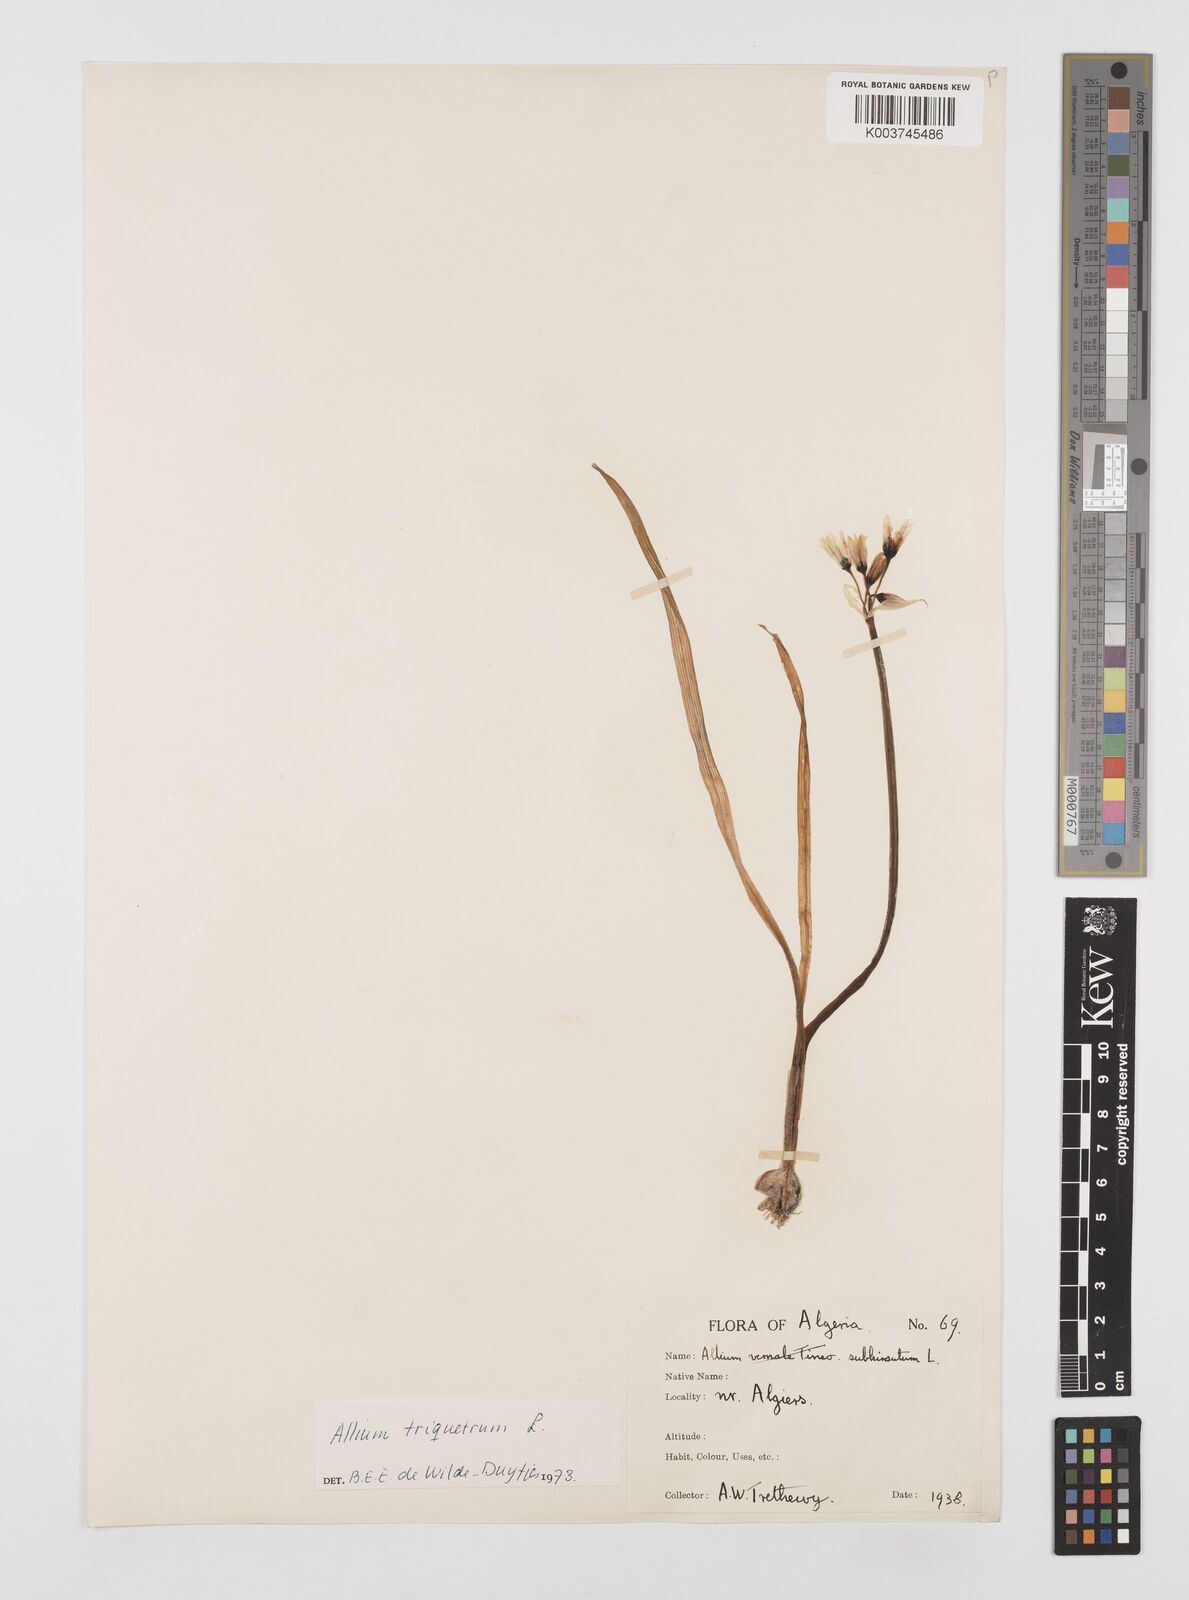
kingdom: Plantae
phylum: Tracheophyta
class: Liliopsida
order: Asparagales
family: Amaryllidaceae
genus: Allium
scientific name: Allium triquetrum
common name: Three-cornered garlic
